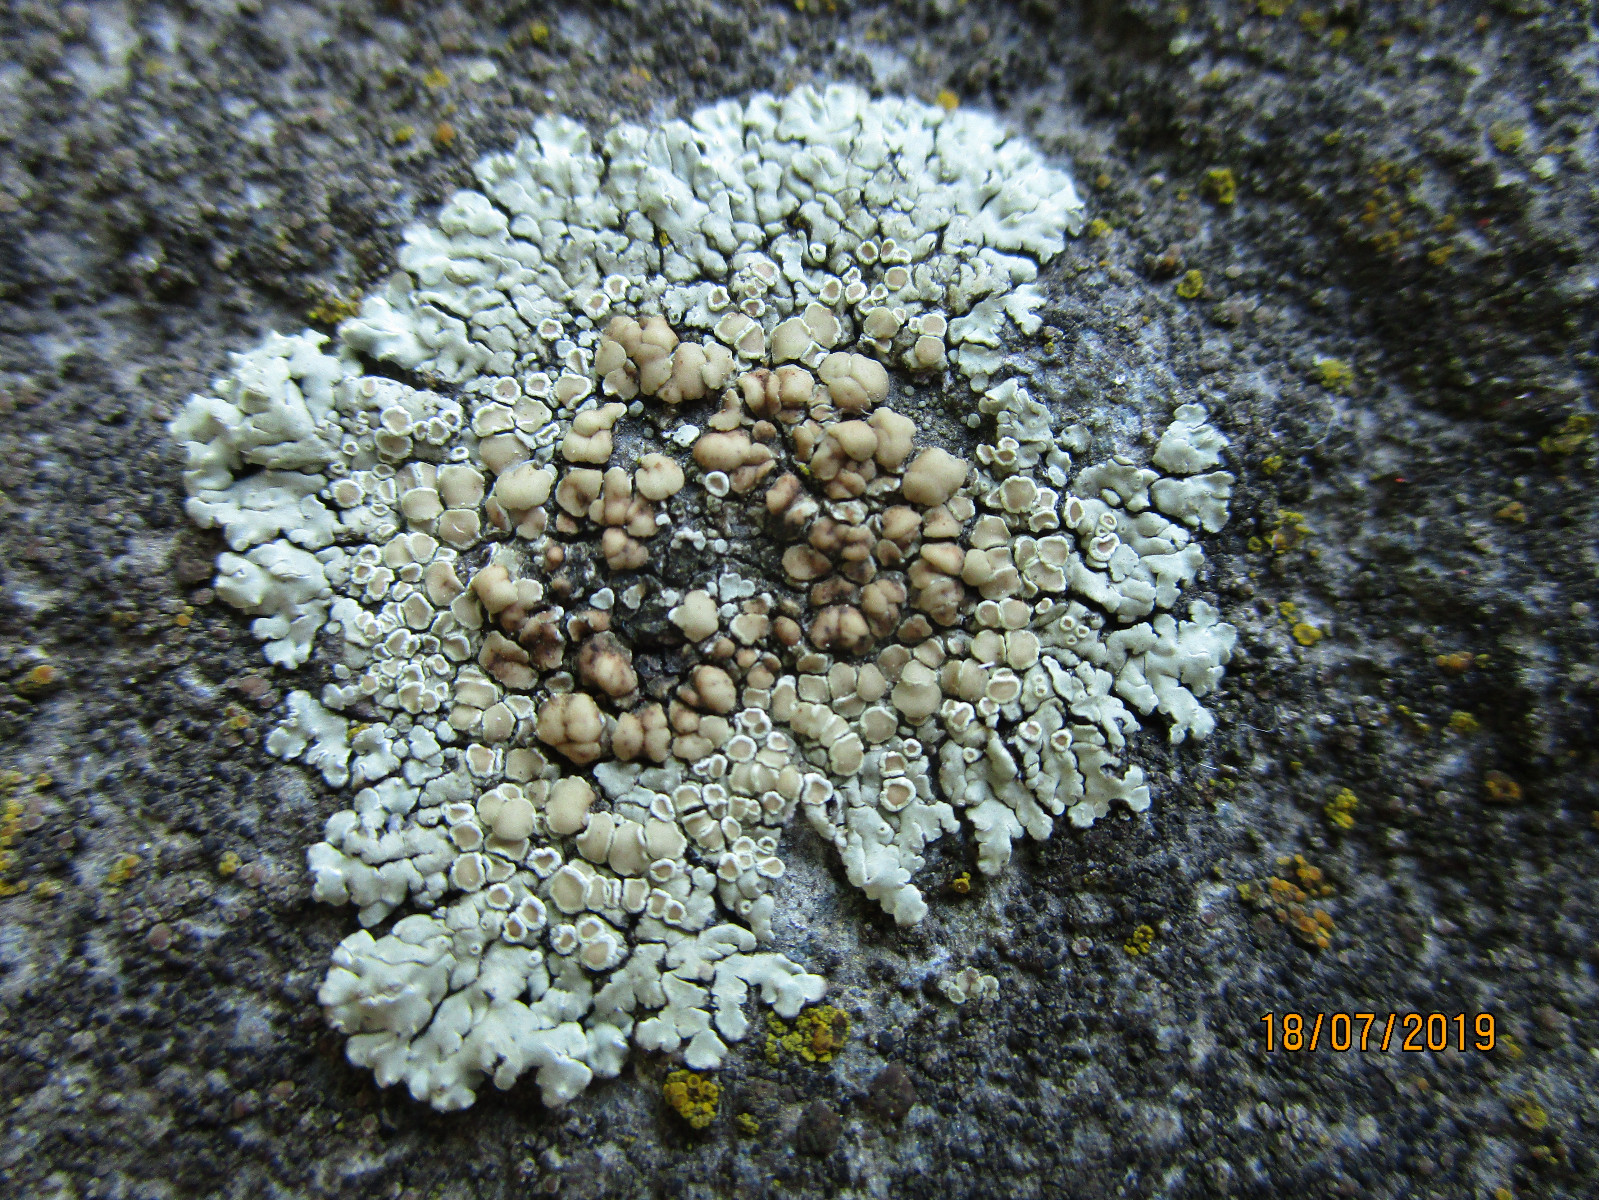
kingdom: Fungi
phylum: Ascomycota
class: Lecanoromycetes
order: Lecanorales
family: Lecanoraceae
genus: Protoparmeliopsis
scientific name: Protoparmeliopsis muralis
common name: randfliget kantskivelav
